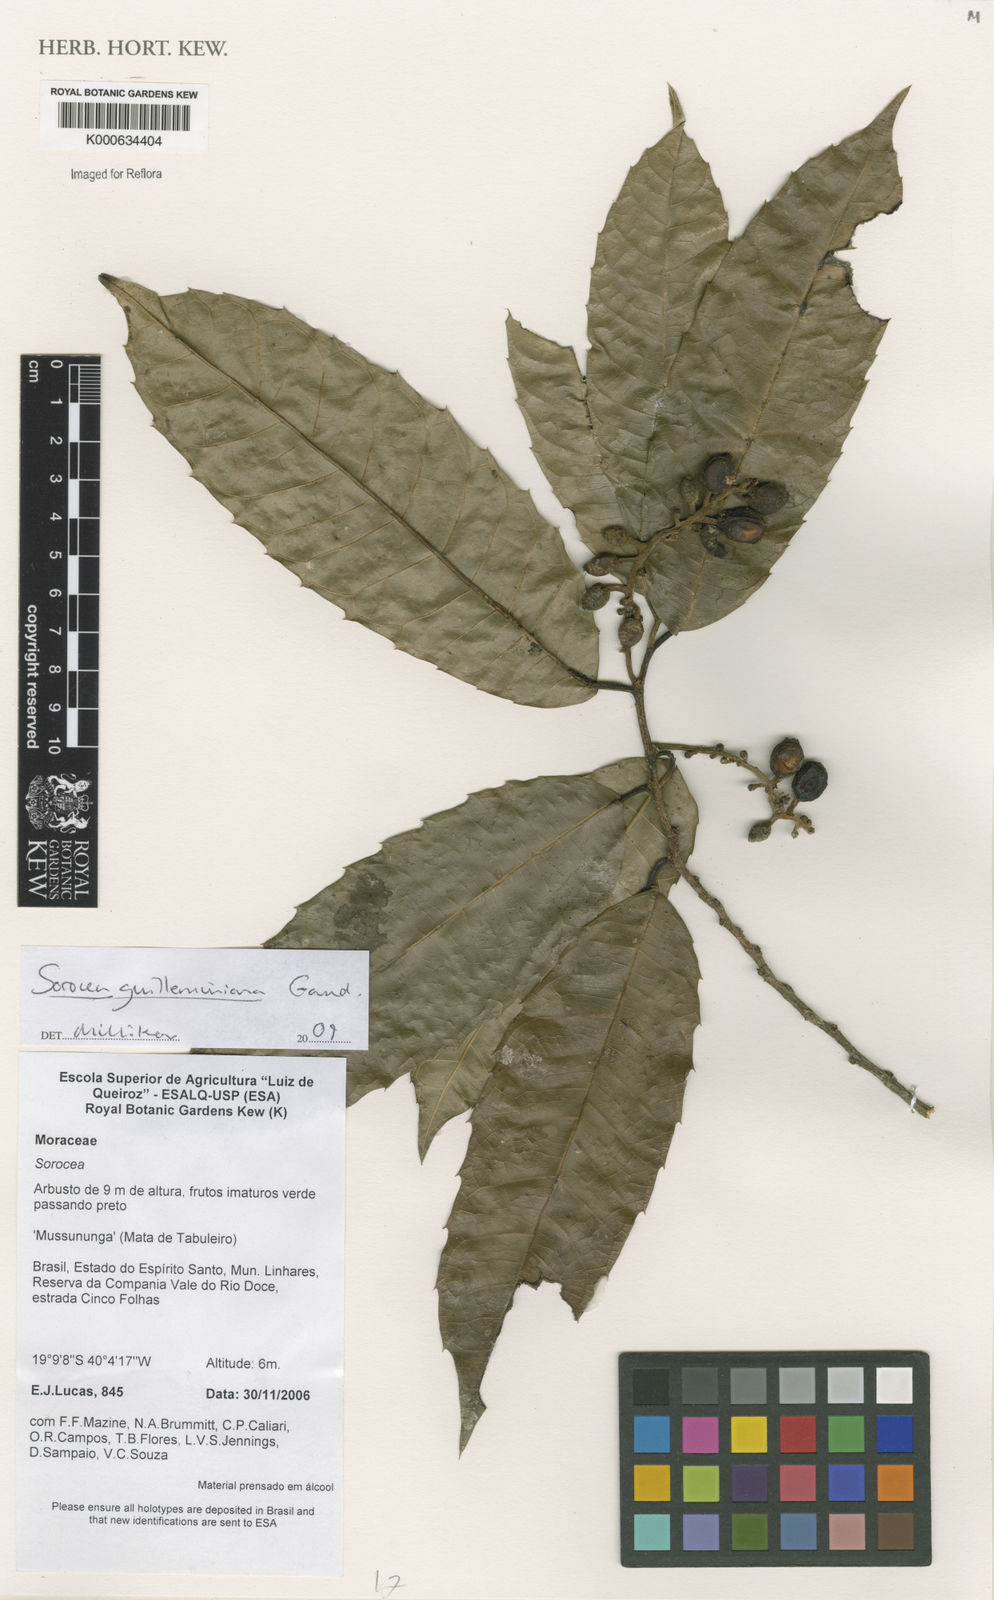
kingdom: Plantae
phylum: Tracheophyta
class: Magnoliopsida
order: Rosales
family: Moraceae
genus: Sorocea
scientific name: Sorocea guilleminiana
